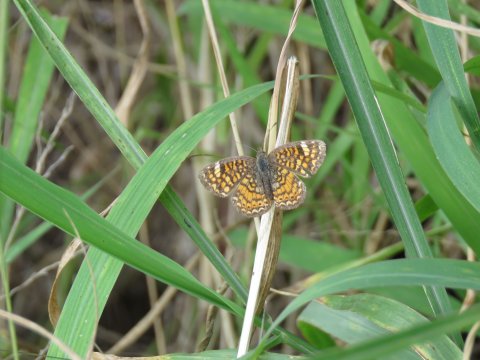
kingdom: Animalia
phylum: Arthropoda
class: Insecta
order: Lepidoptera
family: Nymphalidae
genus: Phyciodes
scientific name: Phyciodes vesta
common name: Vesta Crescent
